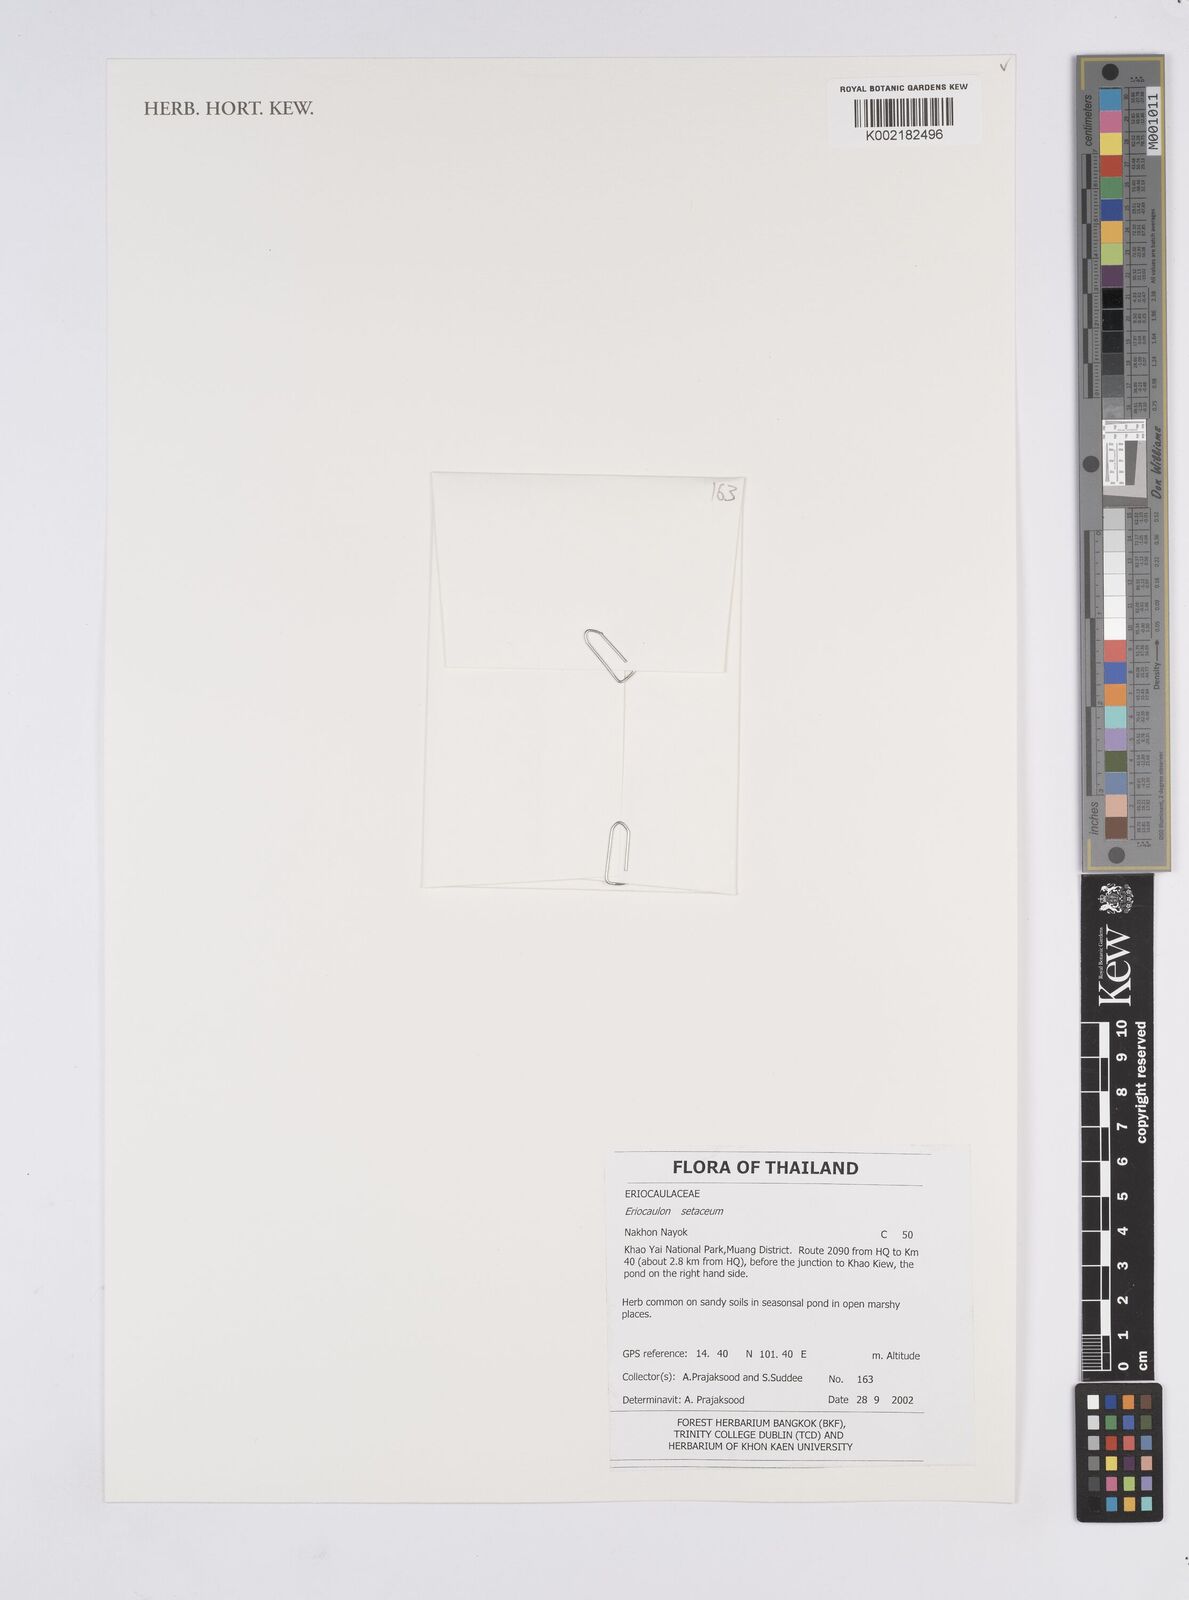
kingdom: Plantae
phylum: Tracheophyta
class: Liliopsida
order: Poales
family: Eriocaulaceae
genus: Eriocaulon
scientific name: Eriocaulon setaceum
